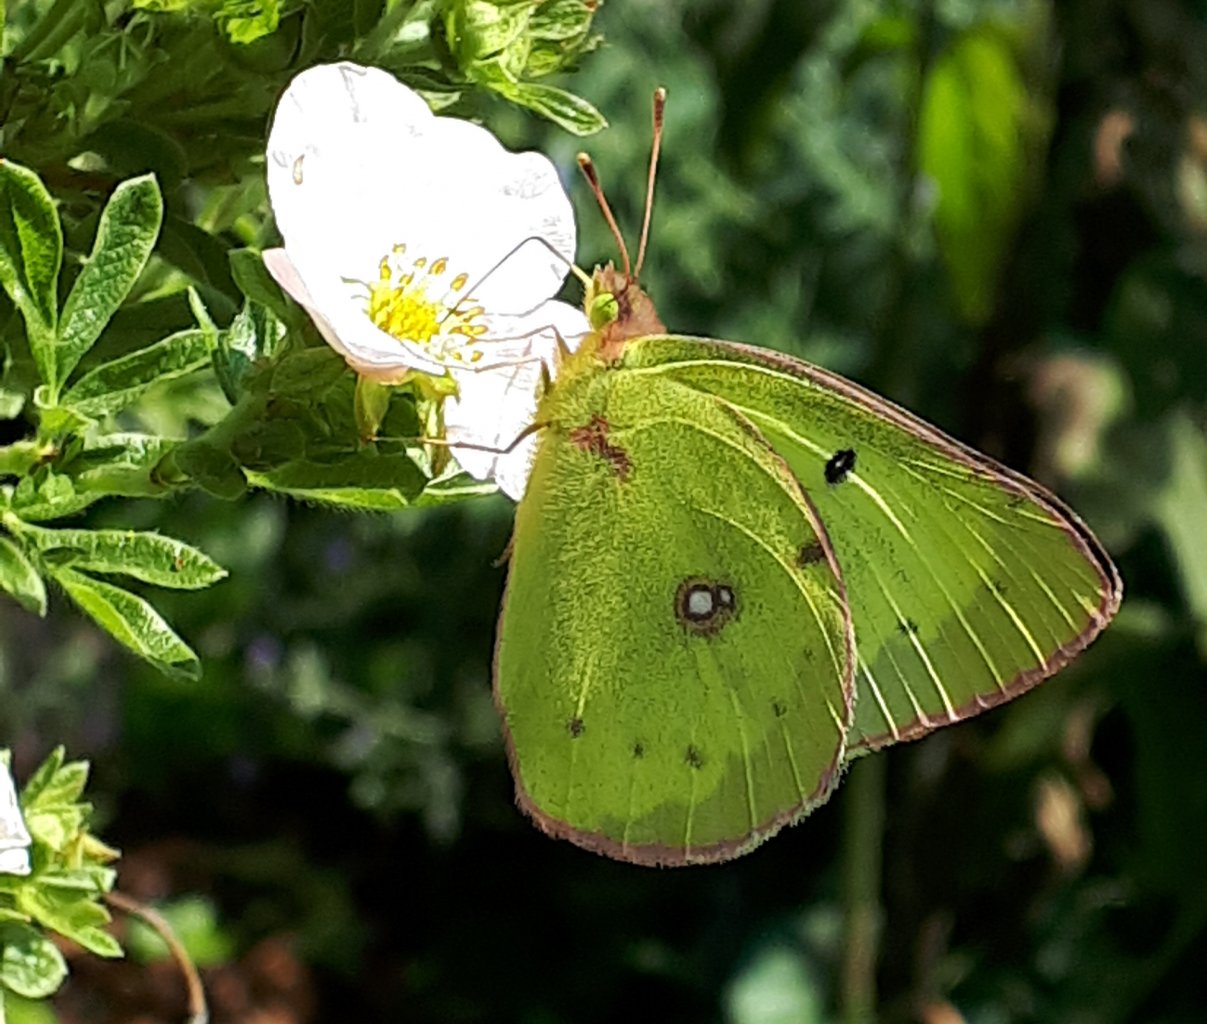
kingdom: Animalia
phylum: Arthropoda
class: Insecta
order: Lepidoptera
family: Pieridae
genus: Colias
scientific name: Colias philodice
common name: Clouded Sulphur
